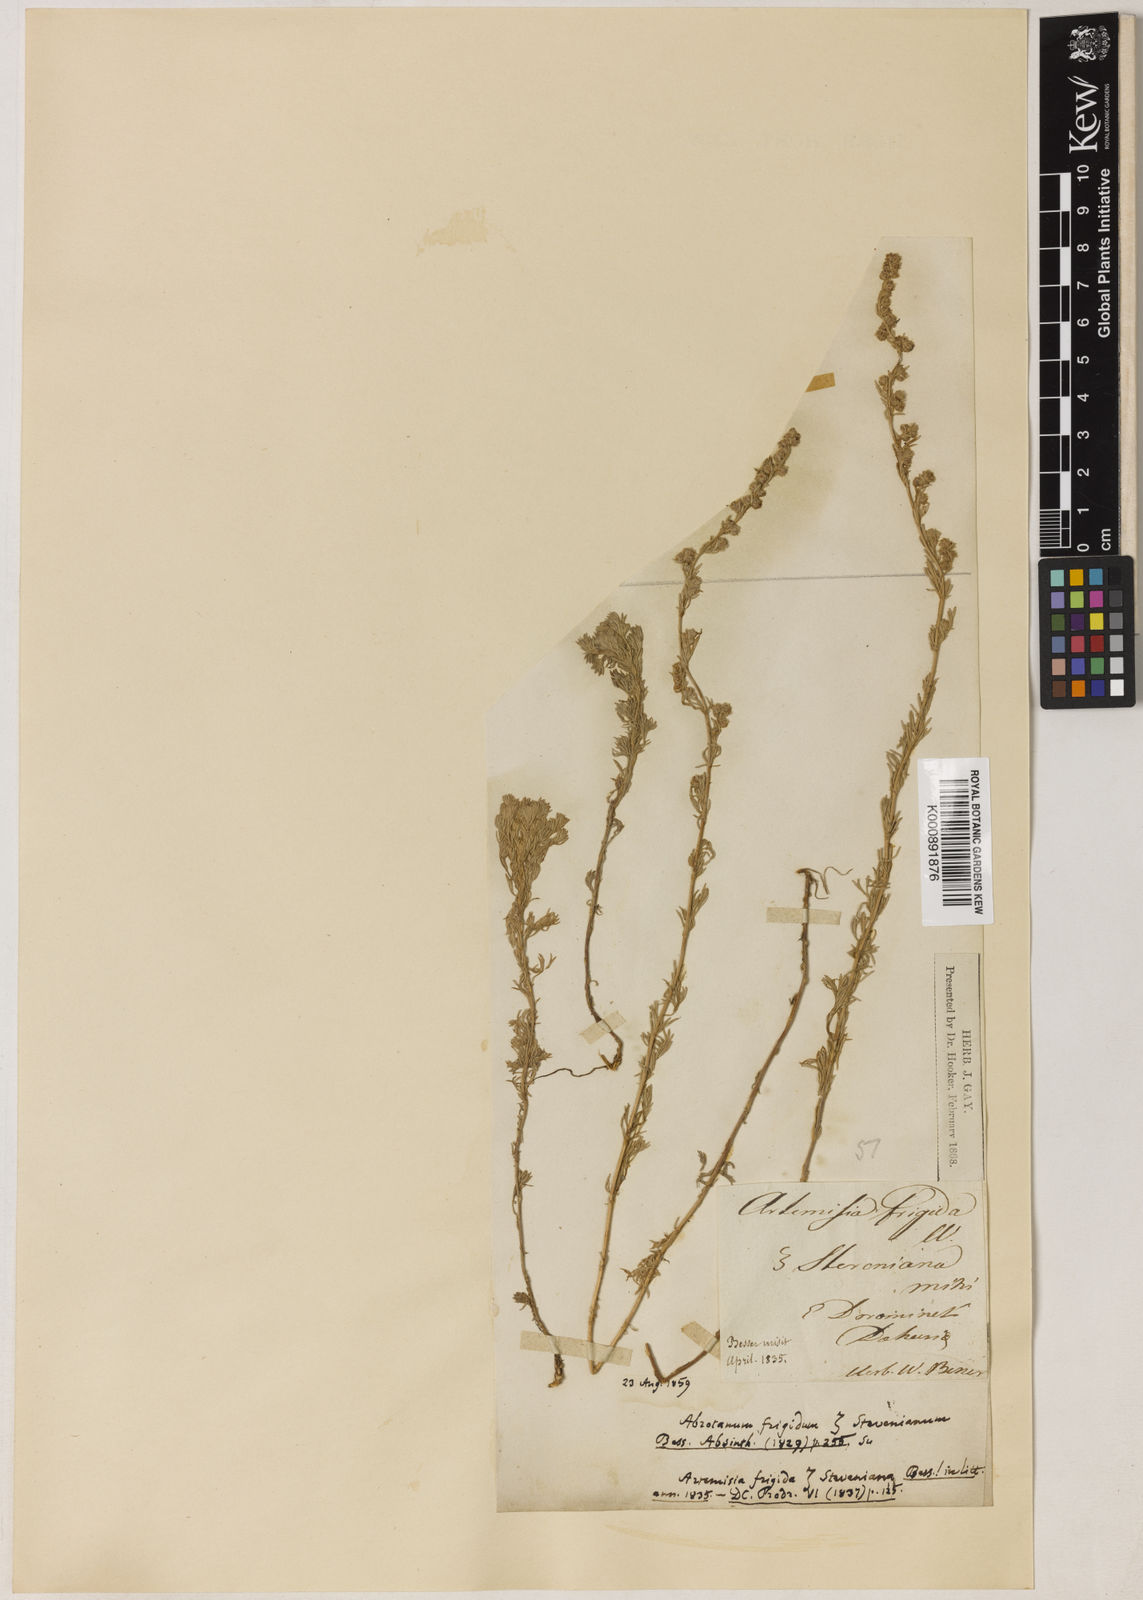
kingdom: Plantae
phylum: Tracheophyta
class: Magnoliopsida
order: Asterales
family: Asteraceae
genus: Artemisia
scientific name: Artemisia glomerata
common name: Pacific alpine wormwood
